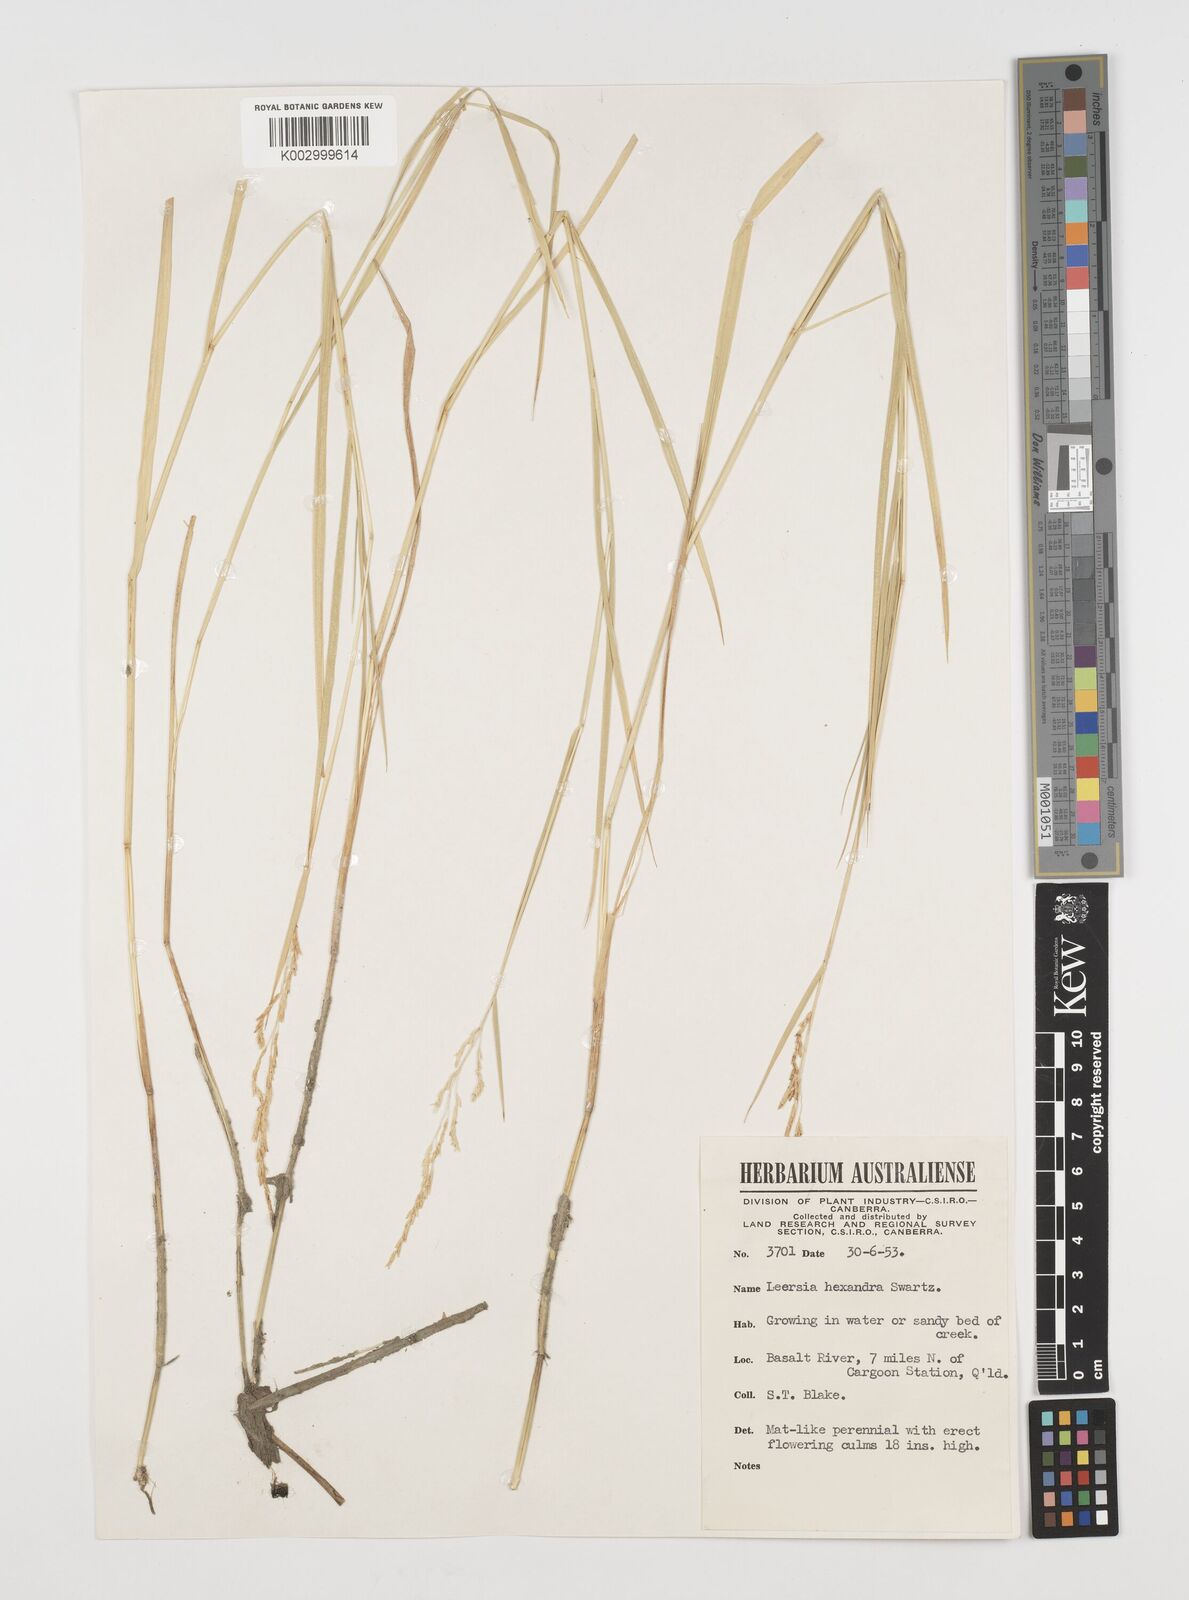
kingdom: Plantae
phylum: Tracheophyta
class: Liliopsida
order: Poales
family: Poaceae
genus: Leersia
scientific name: Leersia hexandra
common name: Southern cut grass
